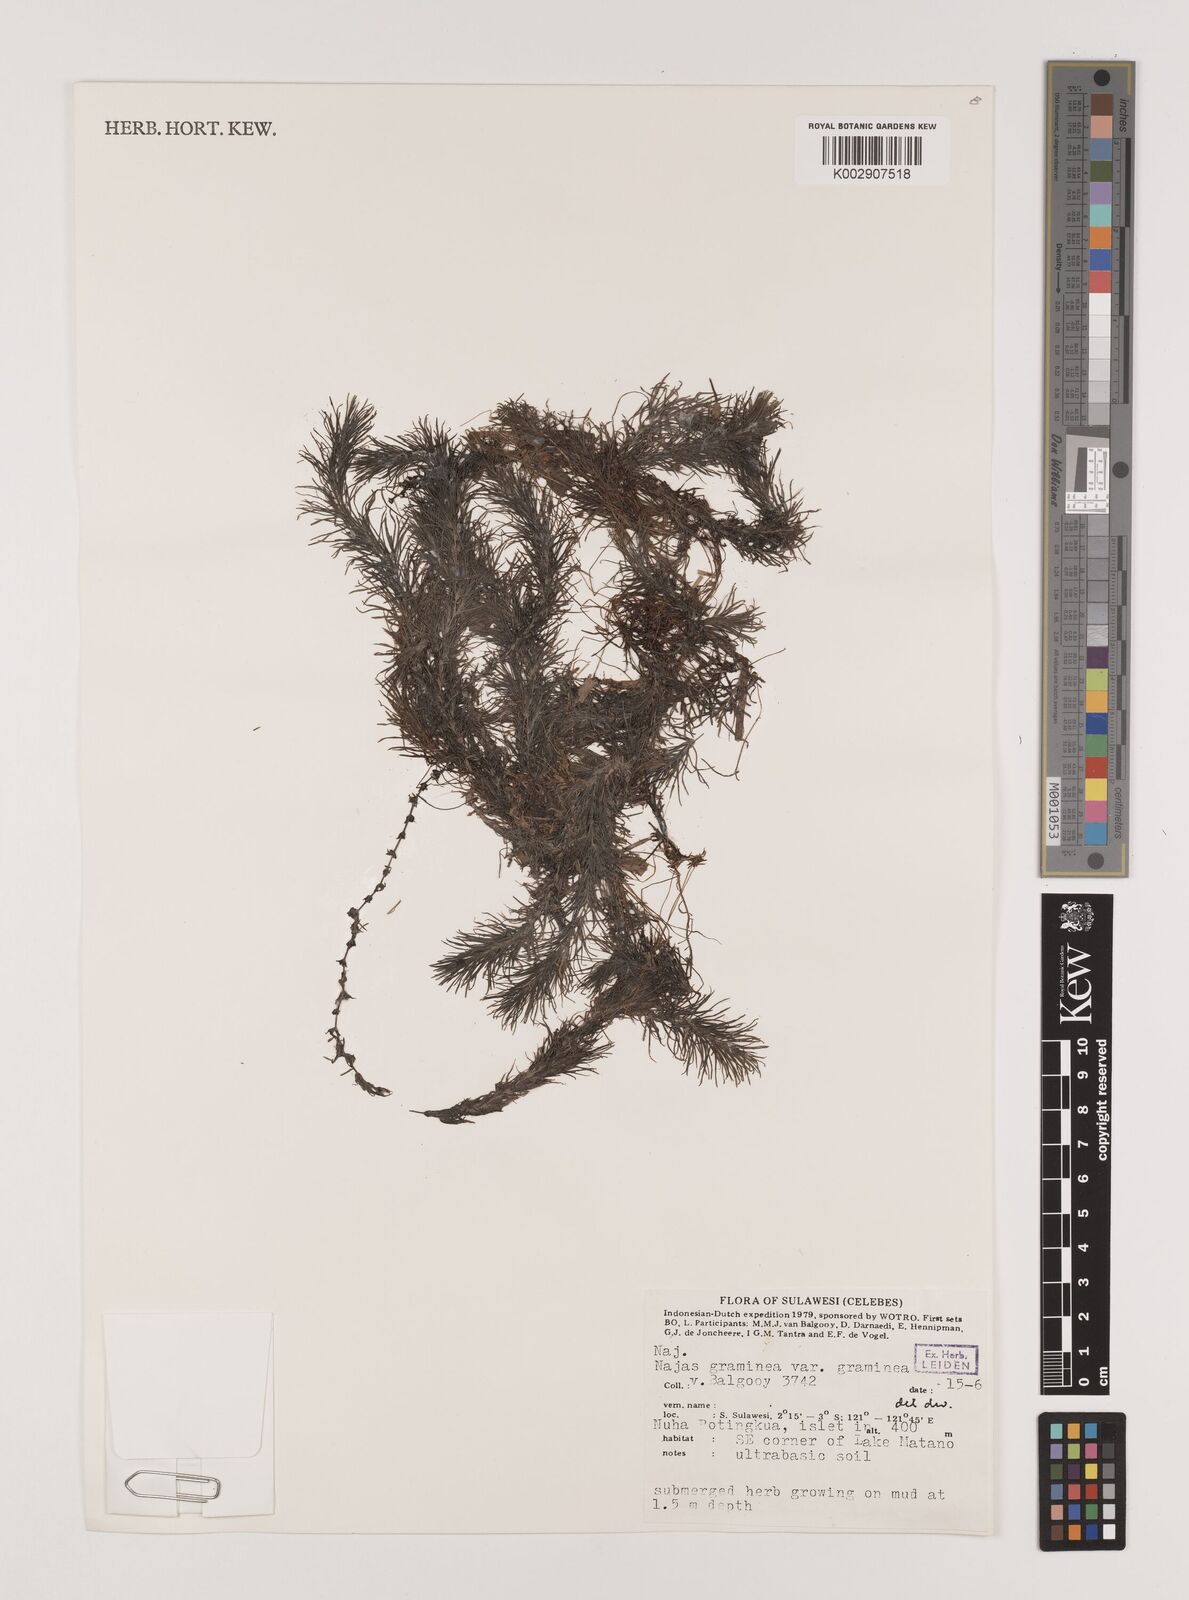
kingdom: Plantae
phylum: Tracheophyta
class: Liliopsida
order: Alismatales
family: Hydrocharitaceae
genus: Najas
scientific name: Najas graminea
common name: Ricefield waternymph
